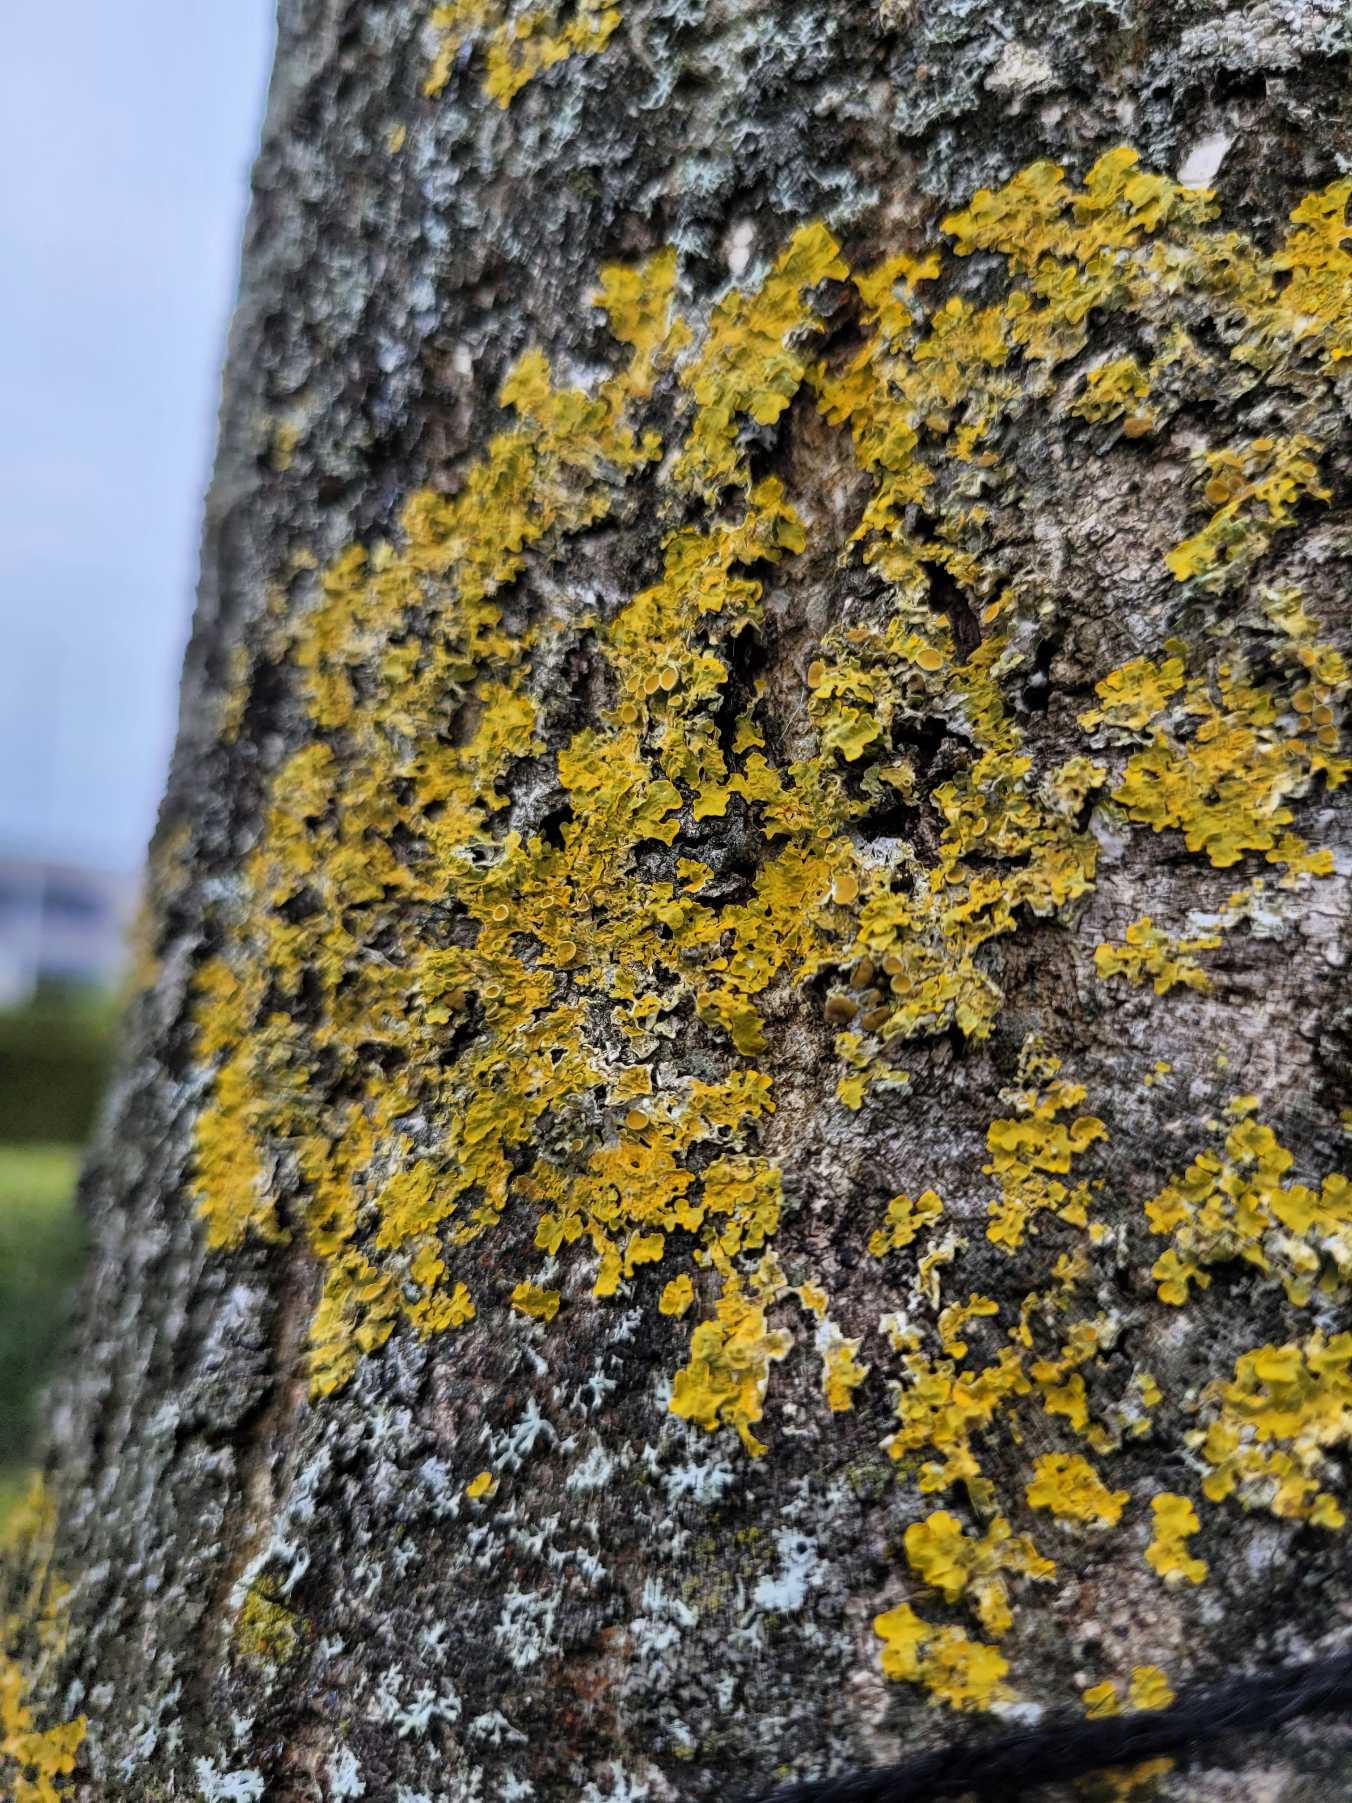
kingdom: Fungi
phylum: Ascomycota
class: Lecanoromycetes
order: Teloschistales
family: Teloschistaceae
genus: Xanthoria
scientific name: Xanthoria parietina
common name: Almindelig væggelav
